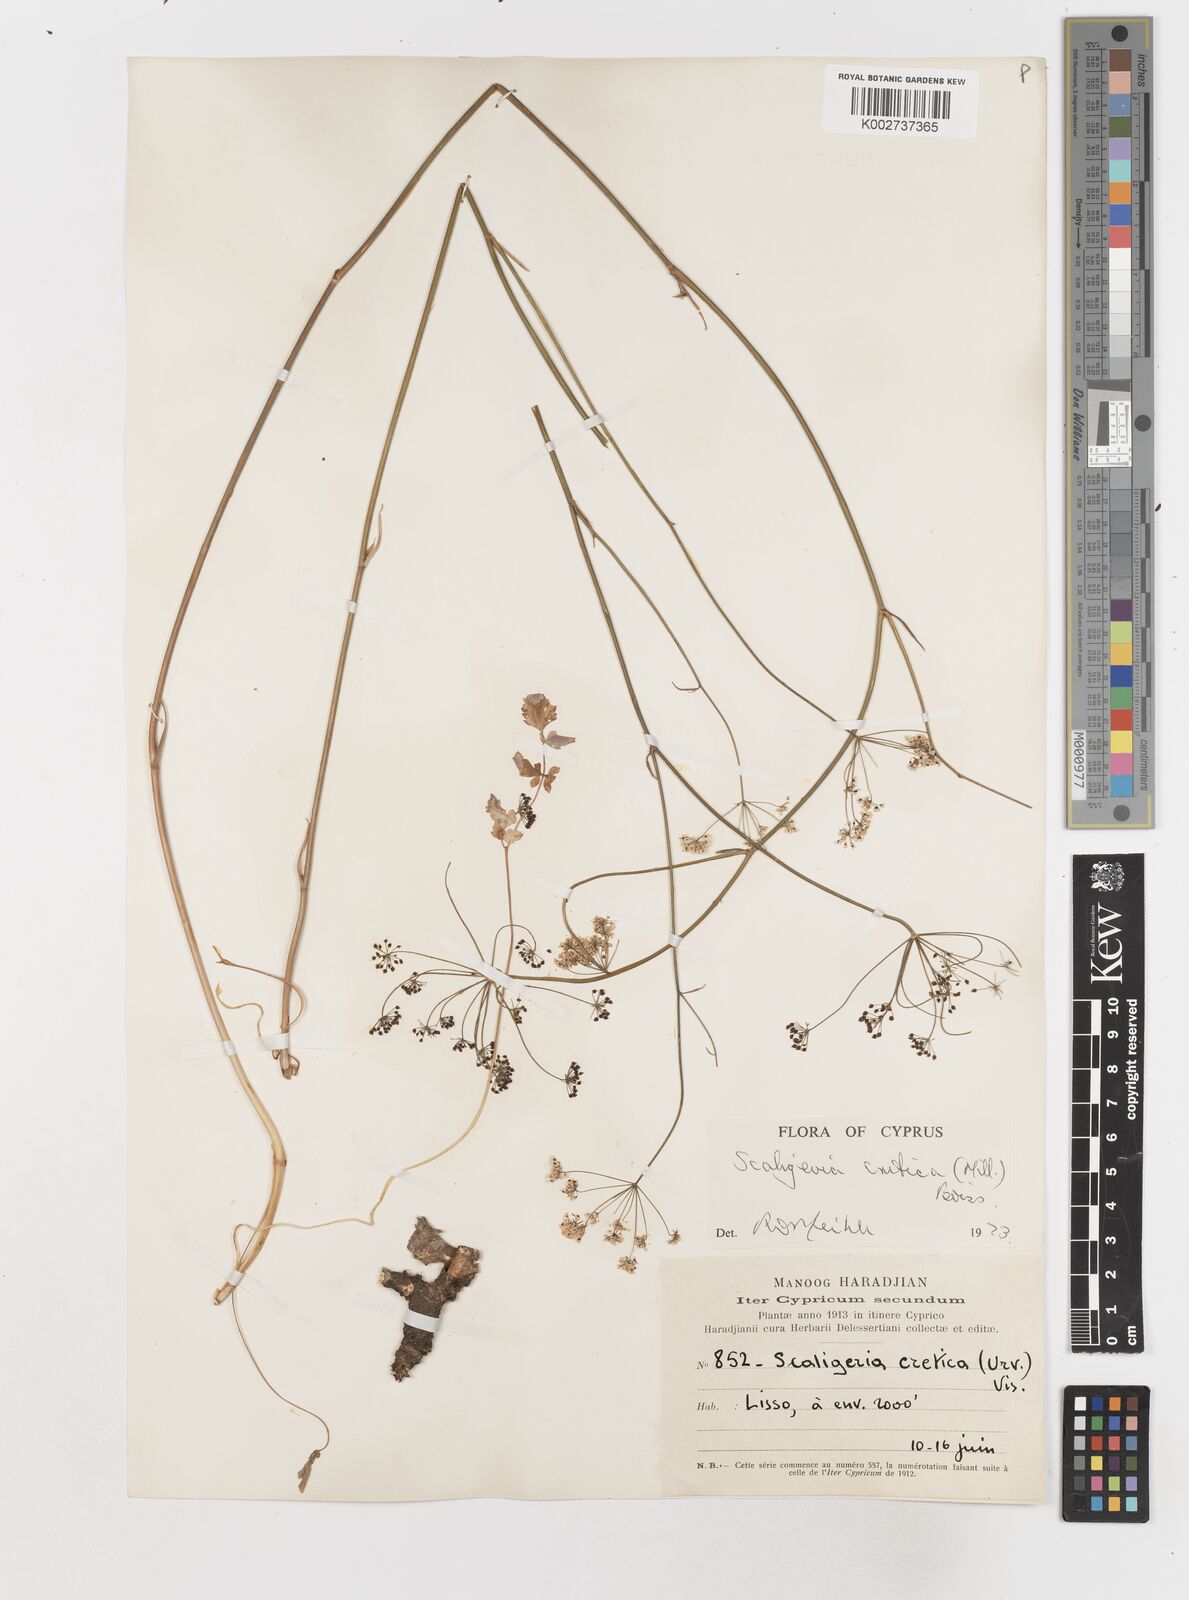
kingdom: Plantae
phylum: Tracheophyta
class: Magnoliopsida
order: Apiales
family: Apiaceae
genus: Scaligeria
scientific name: Scaligeria
